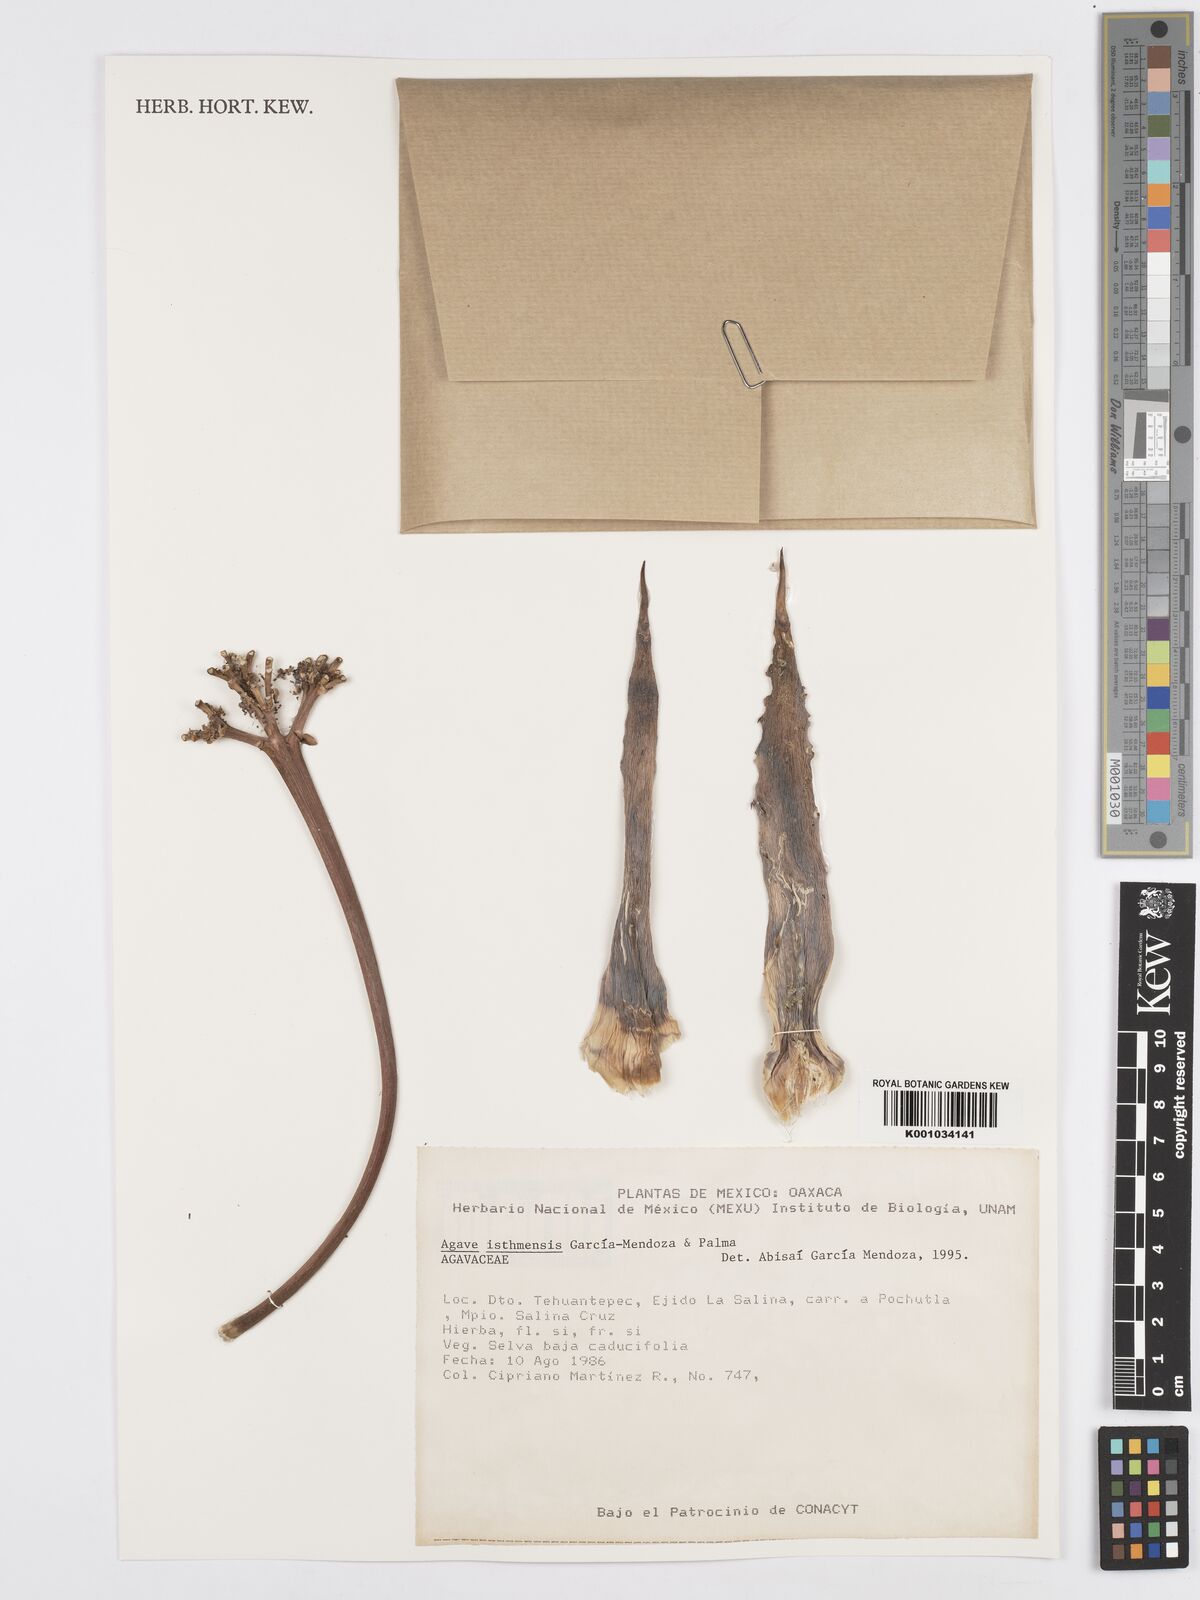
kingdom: Plantae
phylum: Tracheophyta
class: Liliopsida
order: Asparagales
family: Asparagaceae
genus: Agave
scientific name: Agave isthmensis
